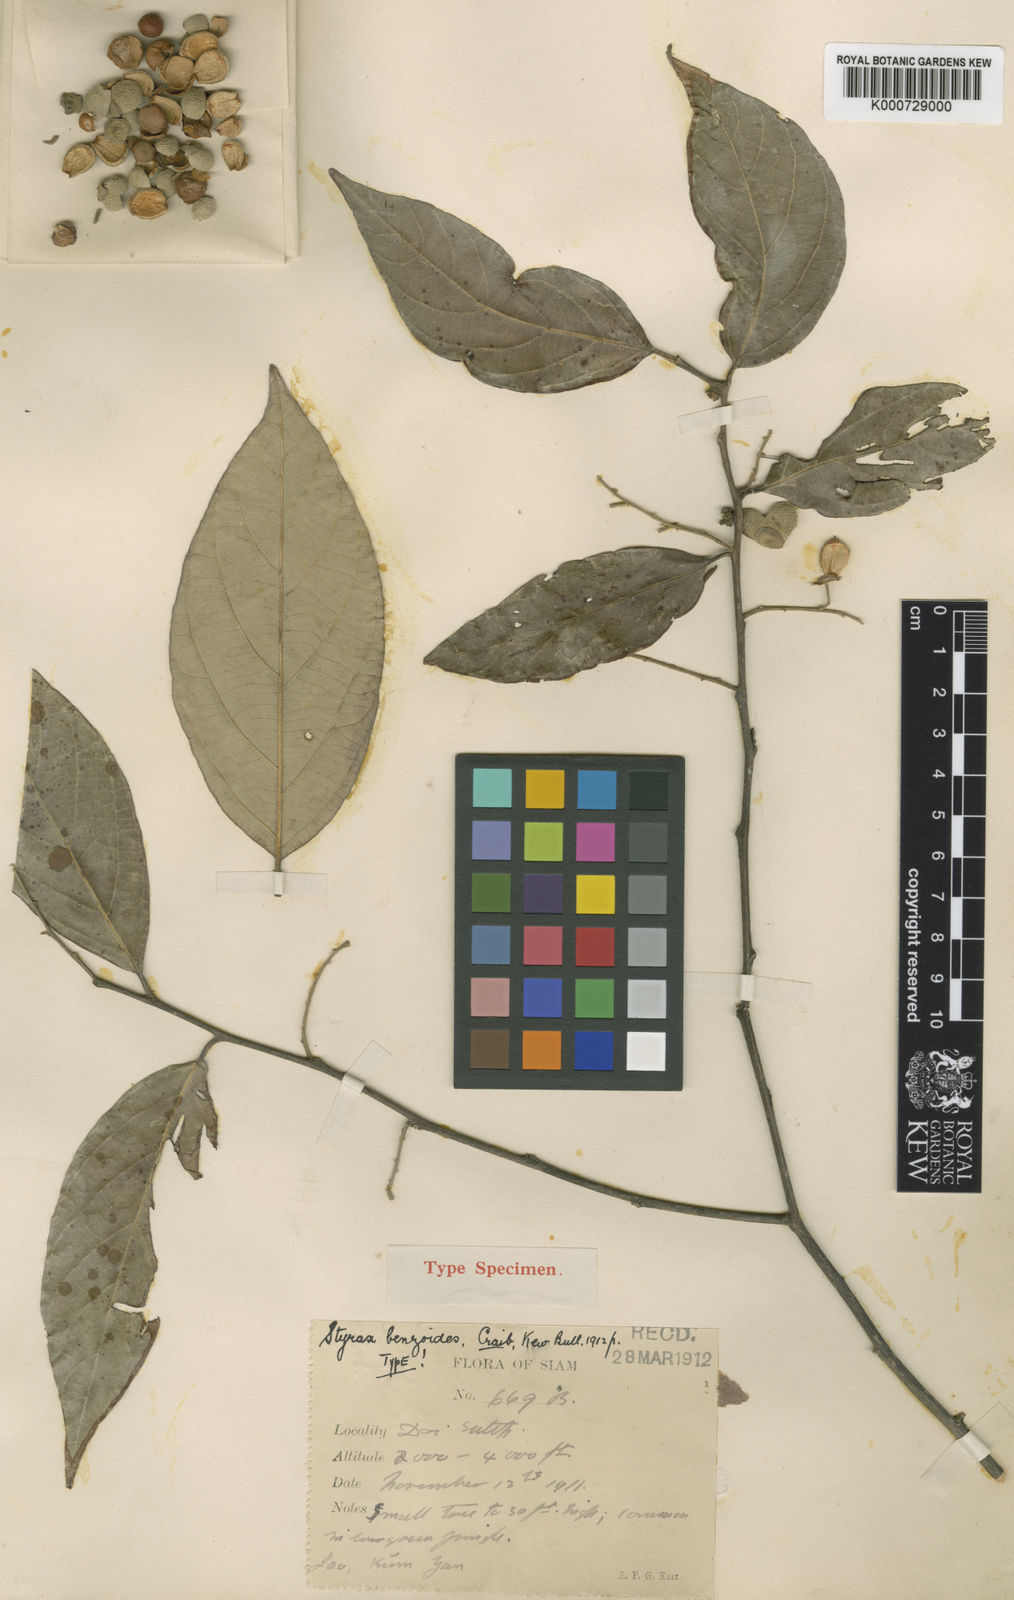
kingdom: Plantae
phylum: Tracheophyta
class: Magnoliopsida
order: Ericales
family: Styracaceae
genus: Styrax
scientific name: Styrax benzoides
